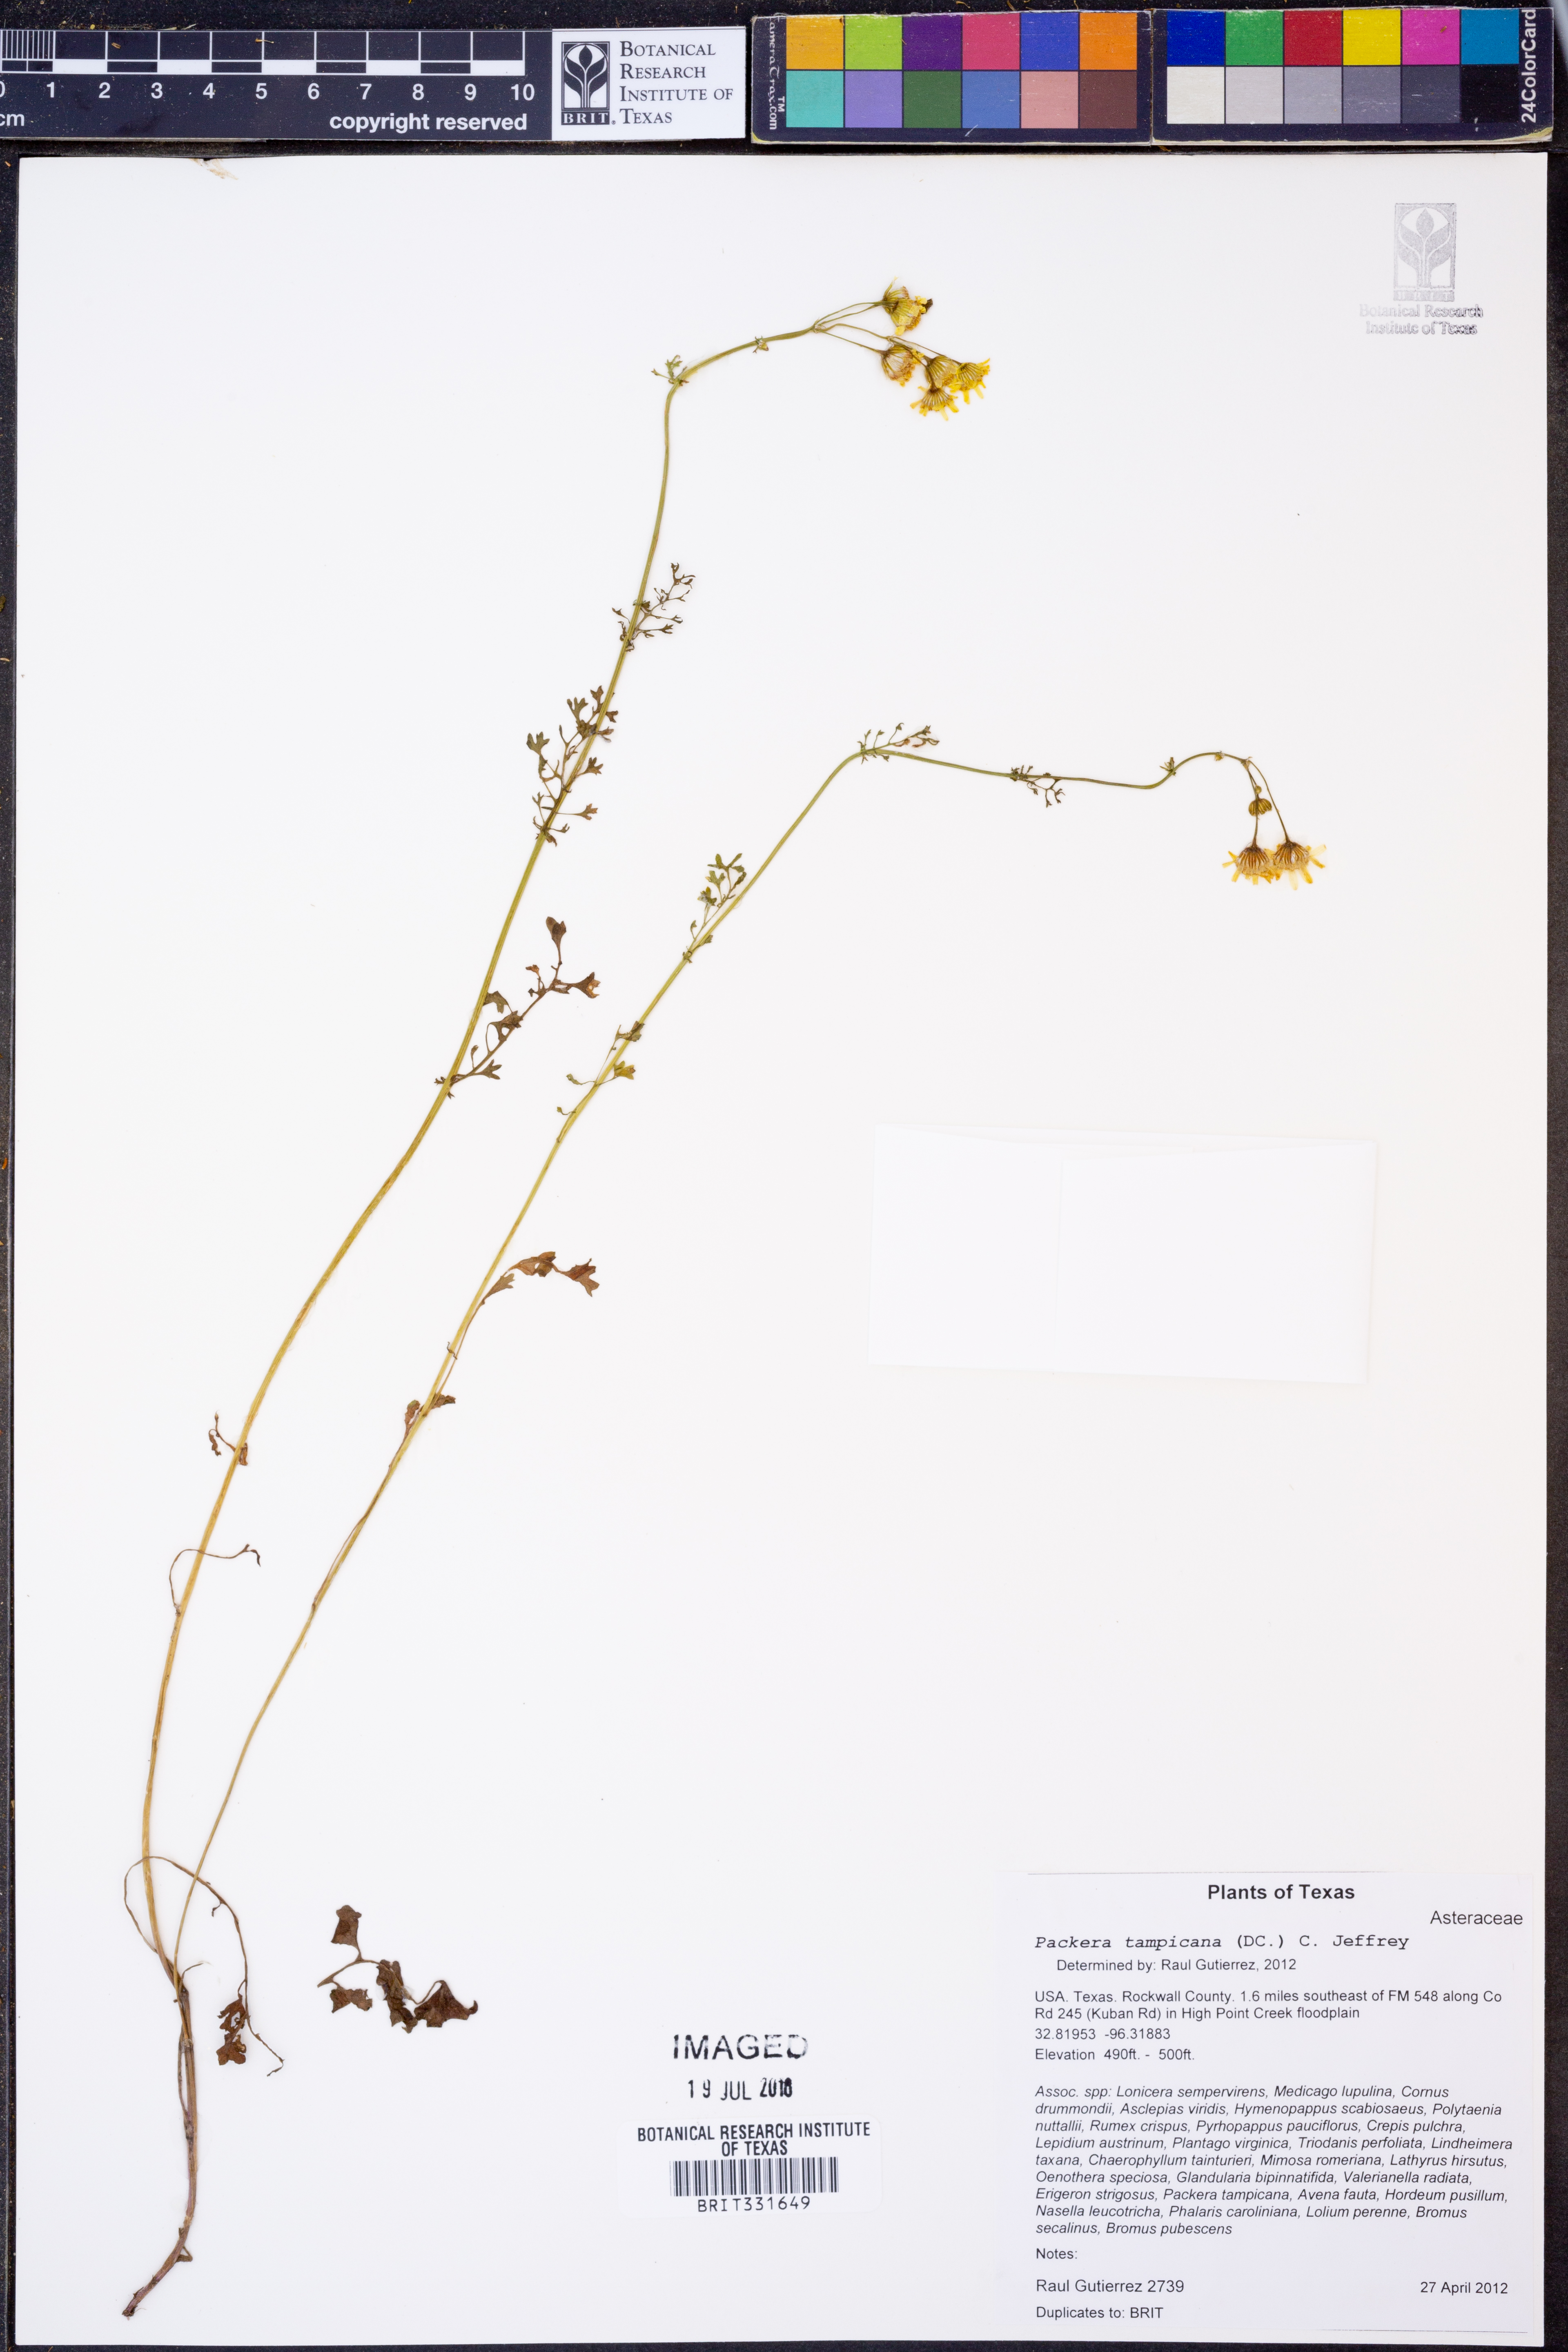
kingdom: Plantae
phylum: Tracheophyta
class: Magnoliopsida
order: Asterales
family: Asteraceae
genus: Packera
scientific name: Packera tampicana
